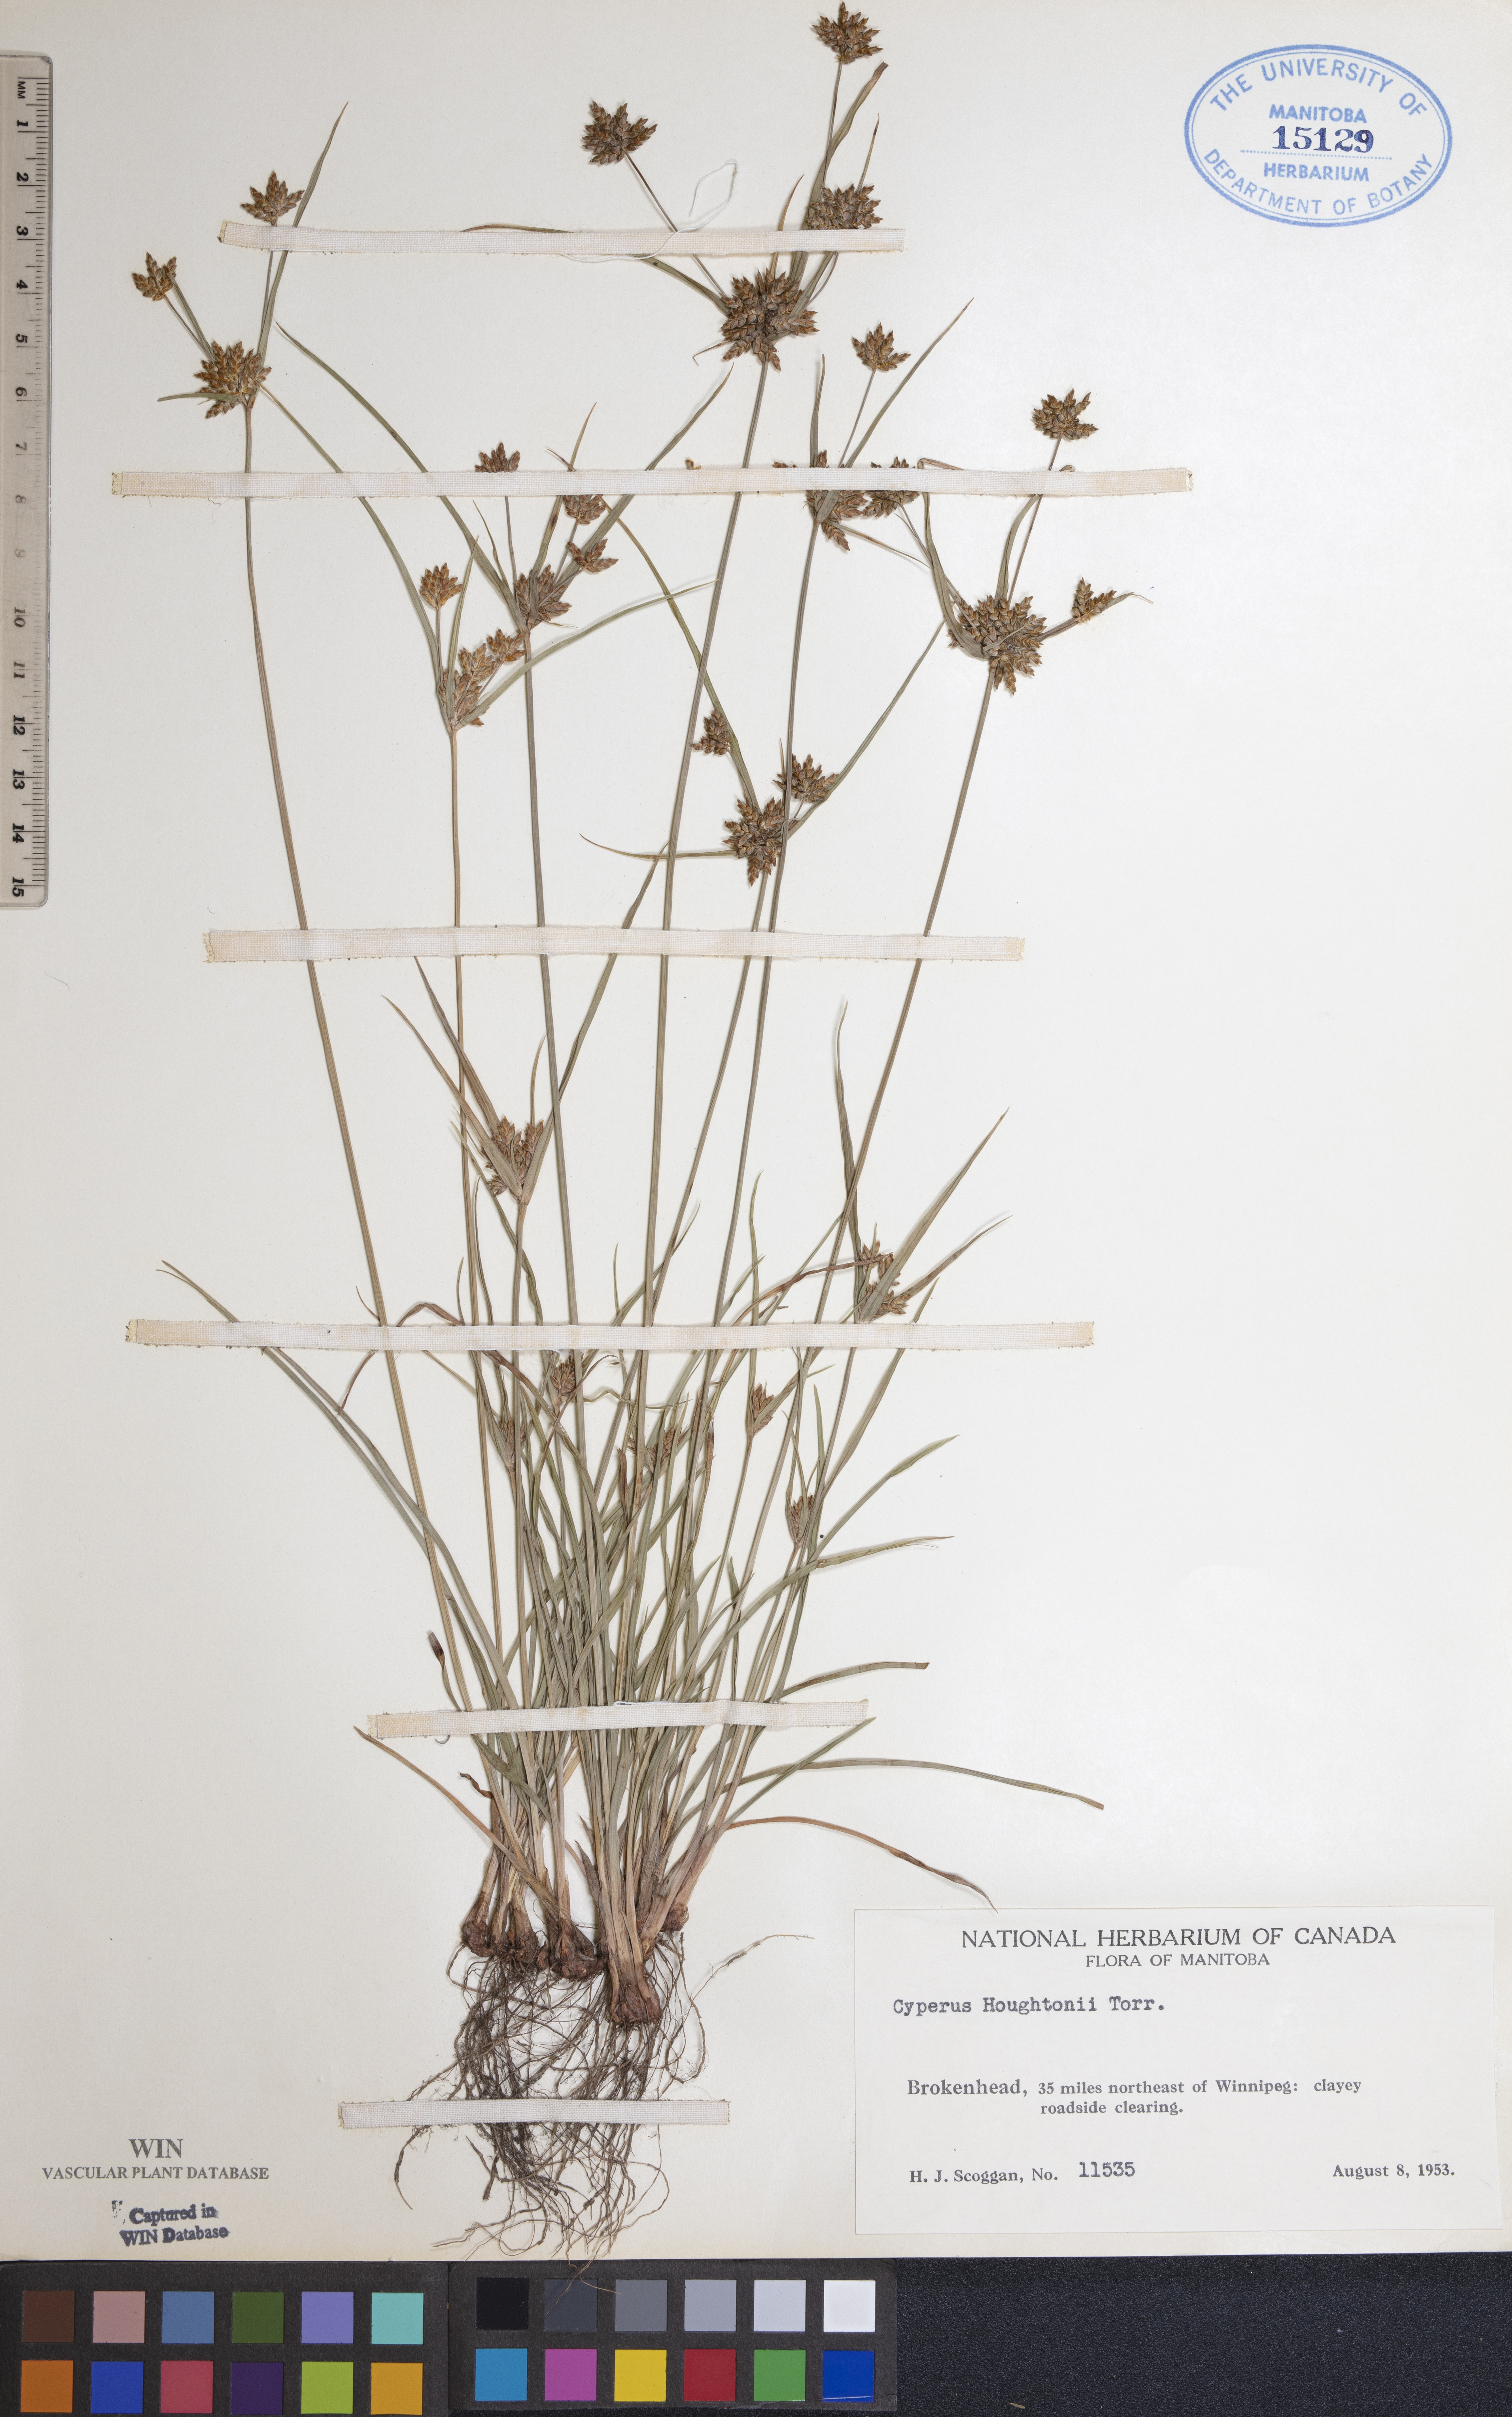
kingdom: Plantae
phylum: Tracheophyta
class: Liliopsida
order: Poales
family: Cyperaceae
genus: Cyperus
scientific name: Cyperus houghtonii
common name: Houghton's cyperus
